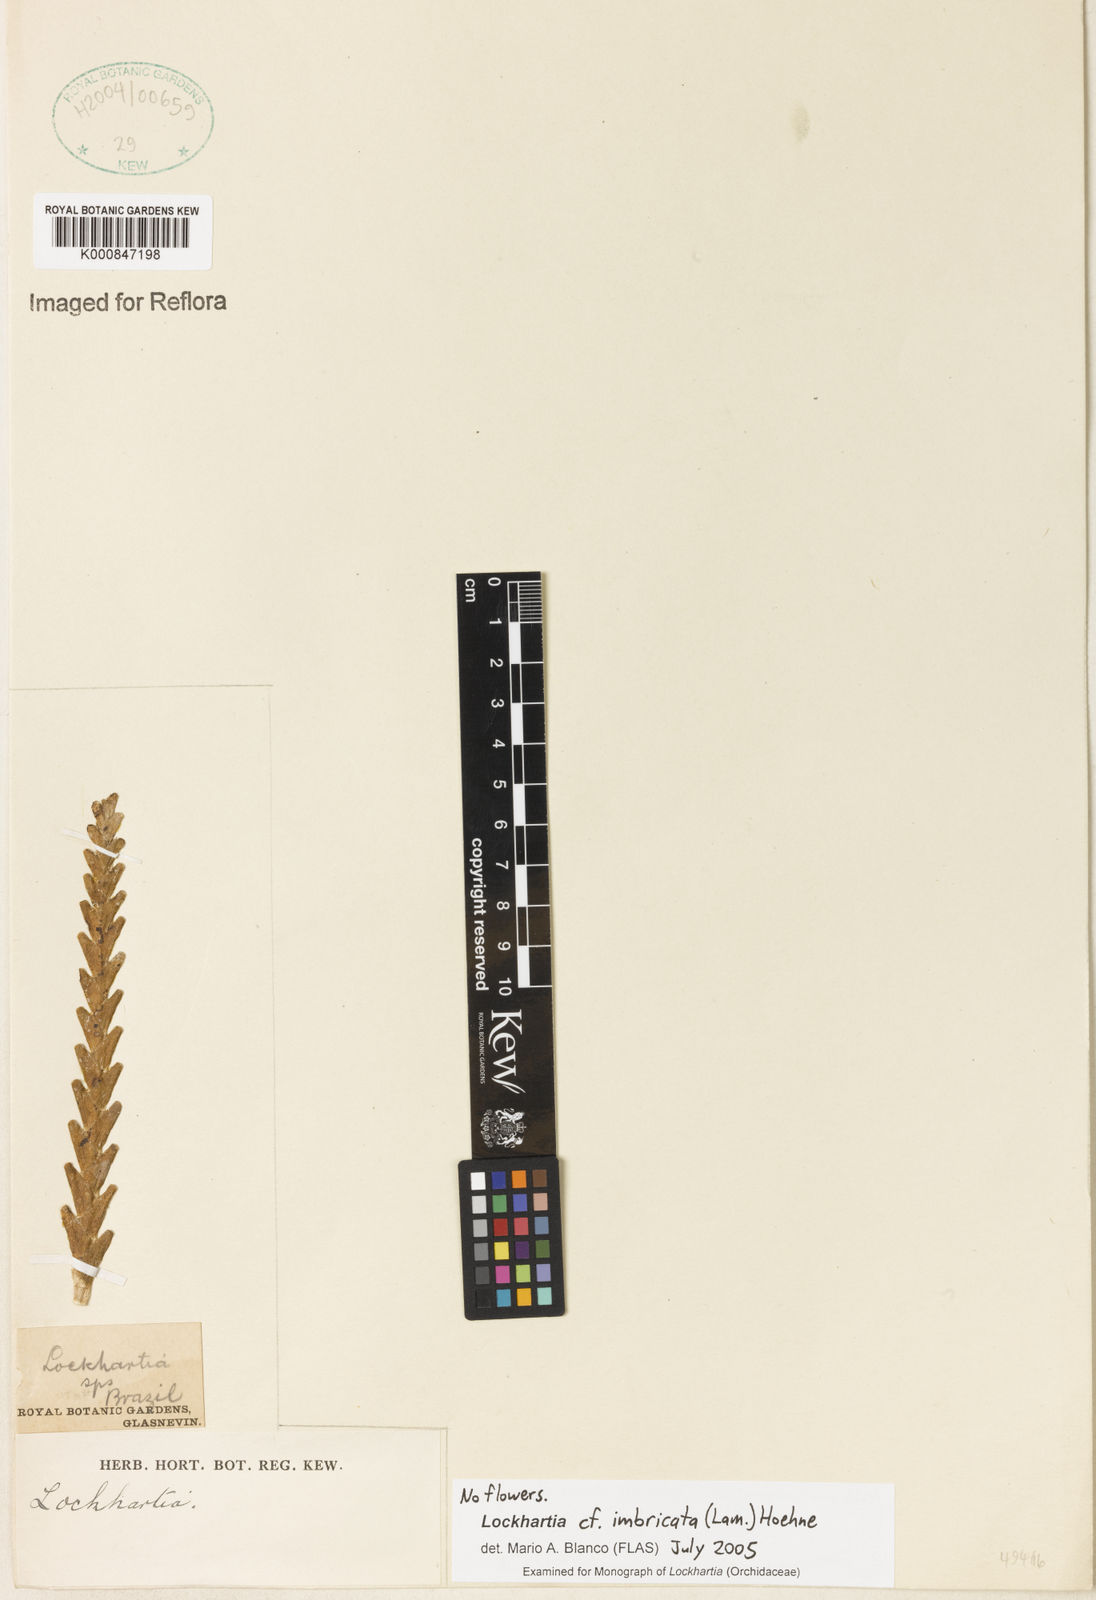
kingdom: Plantae
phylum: Tracheophyta
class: Liliopsida
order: Asparagales
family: Orchidaceae
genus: Lockhartia
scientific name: Lockhartia imbricata
